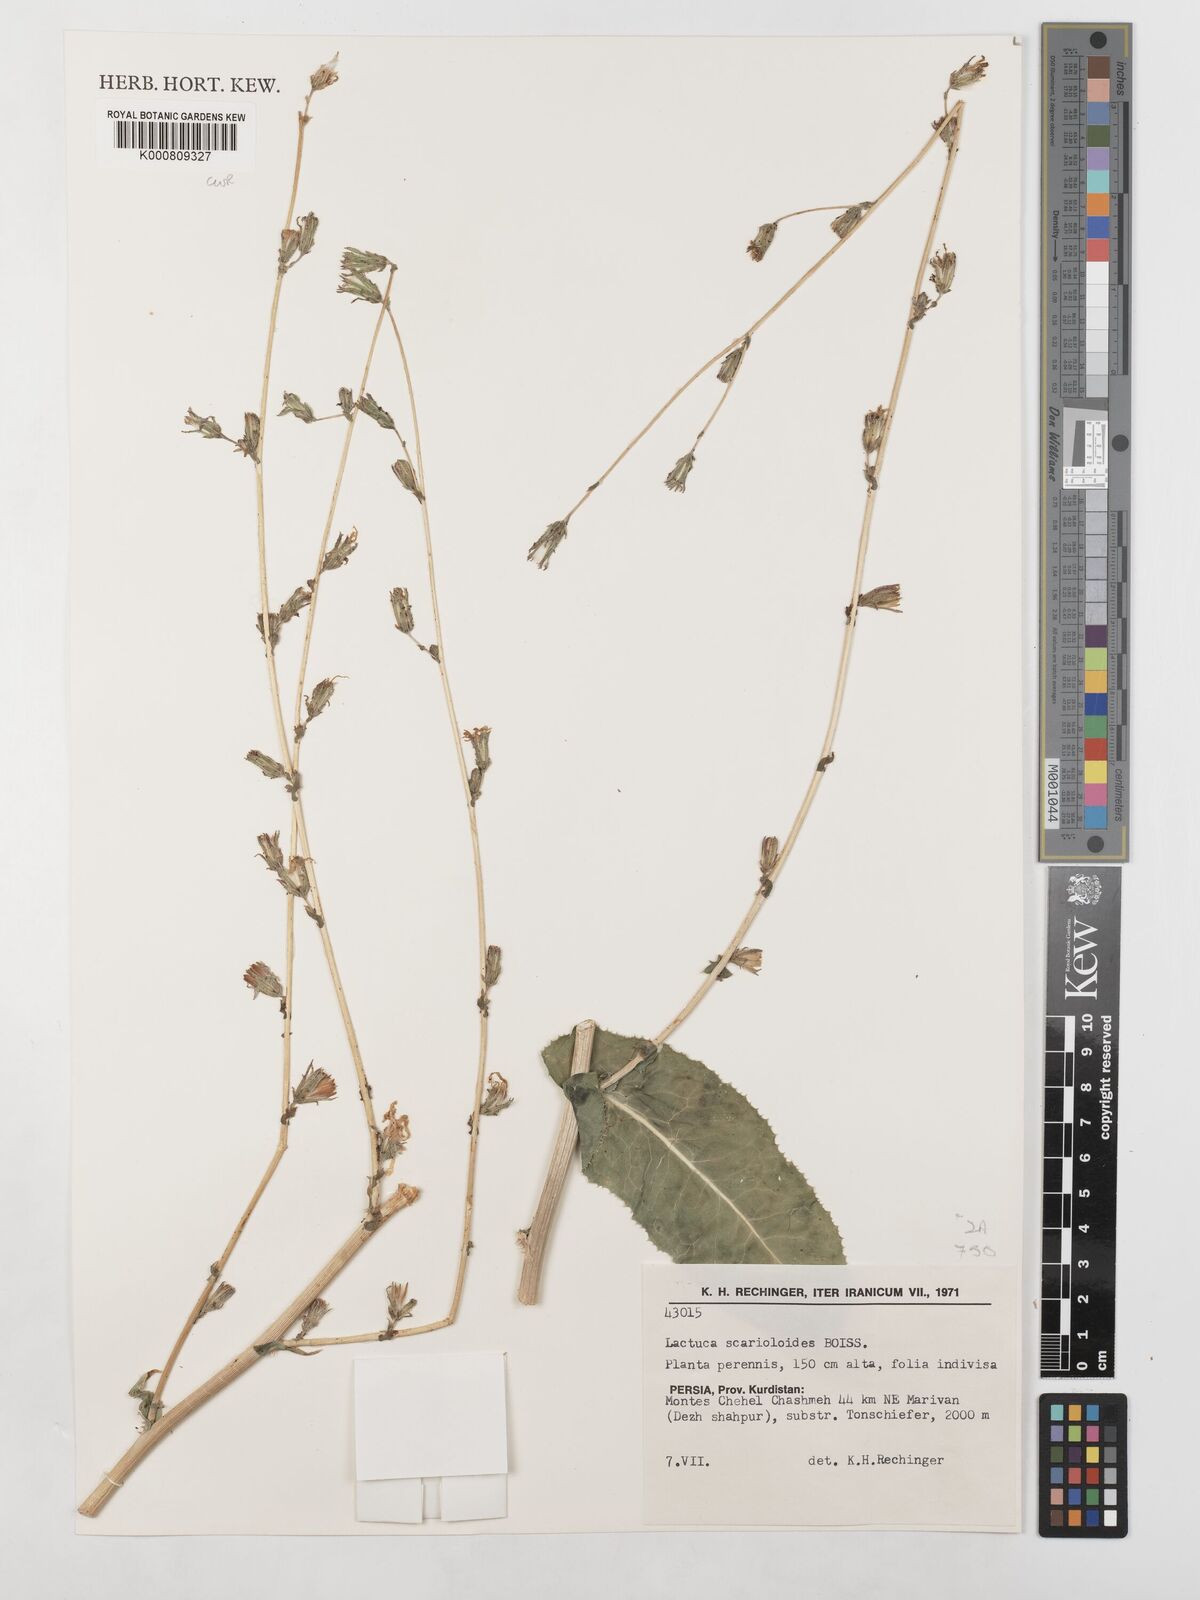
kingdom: Plantae
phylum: Tracheophyta
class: Magnoliopsida
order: Asterales
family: Asteraceae
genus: Lactuca
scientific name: Lactuca scarioloides
